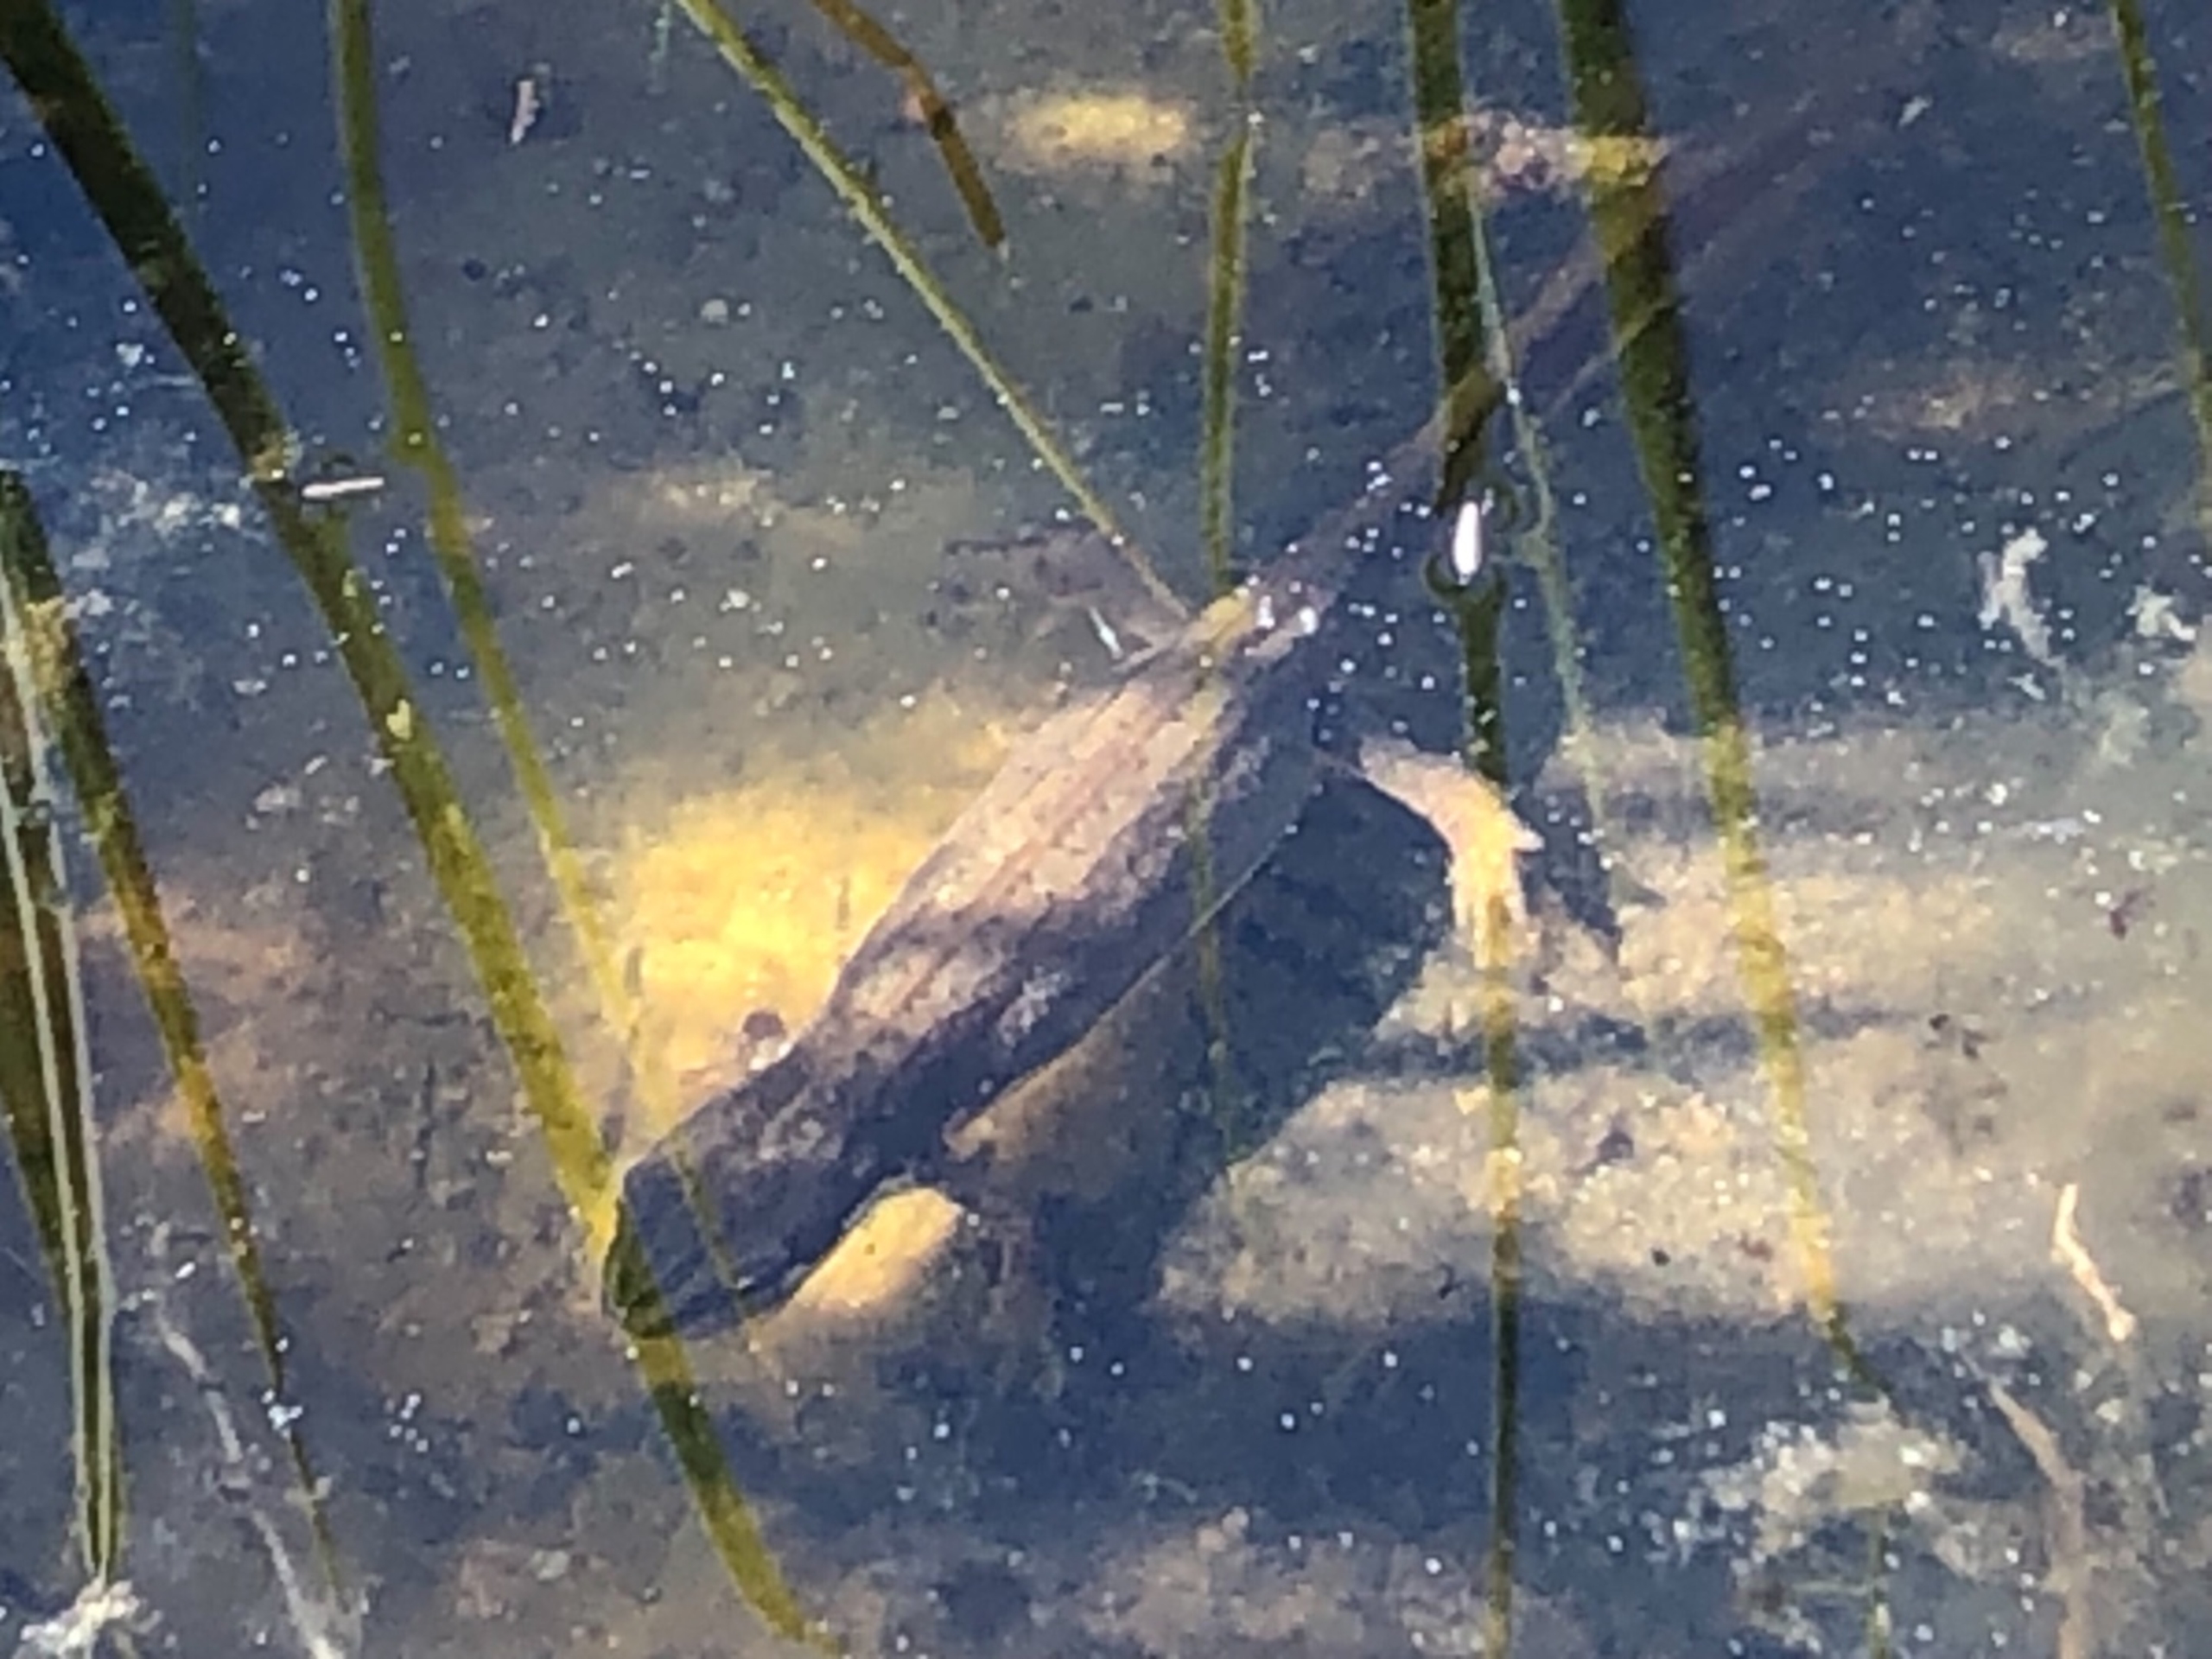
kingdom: Animalia
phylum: Chordata
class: Amphibia
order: Caudata
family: Salamandridae
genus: Lissotriton
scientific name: Lissotriton vulgaris
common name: Lille vandsalamander
